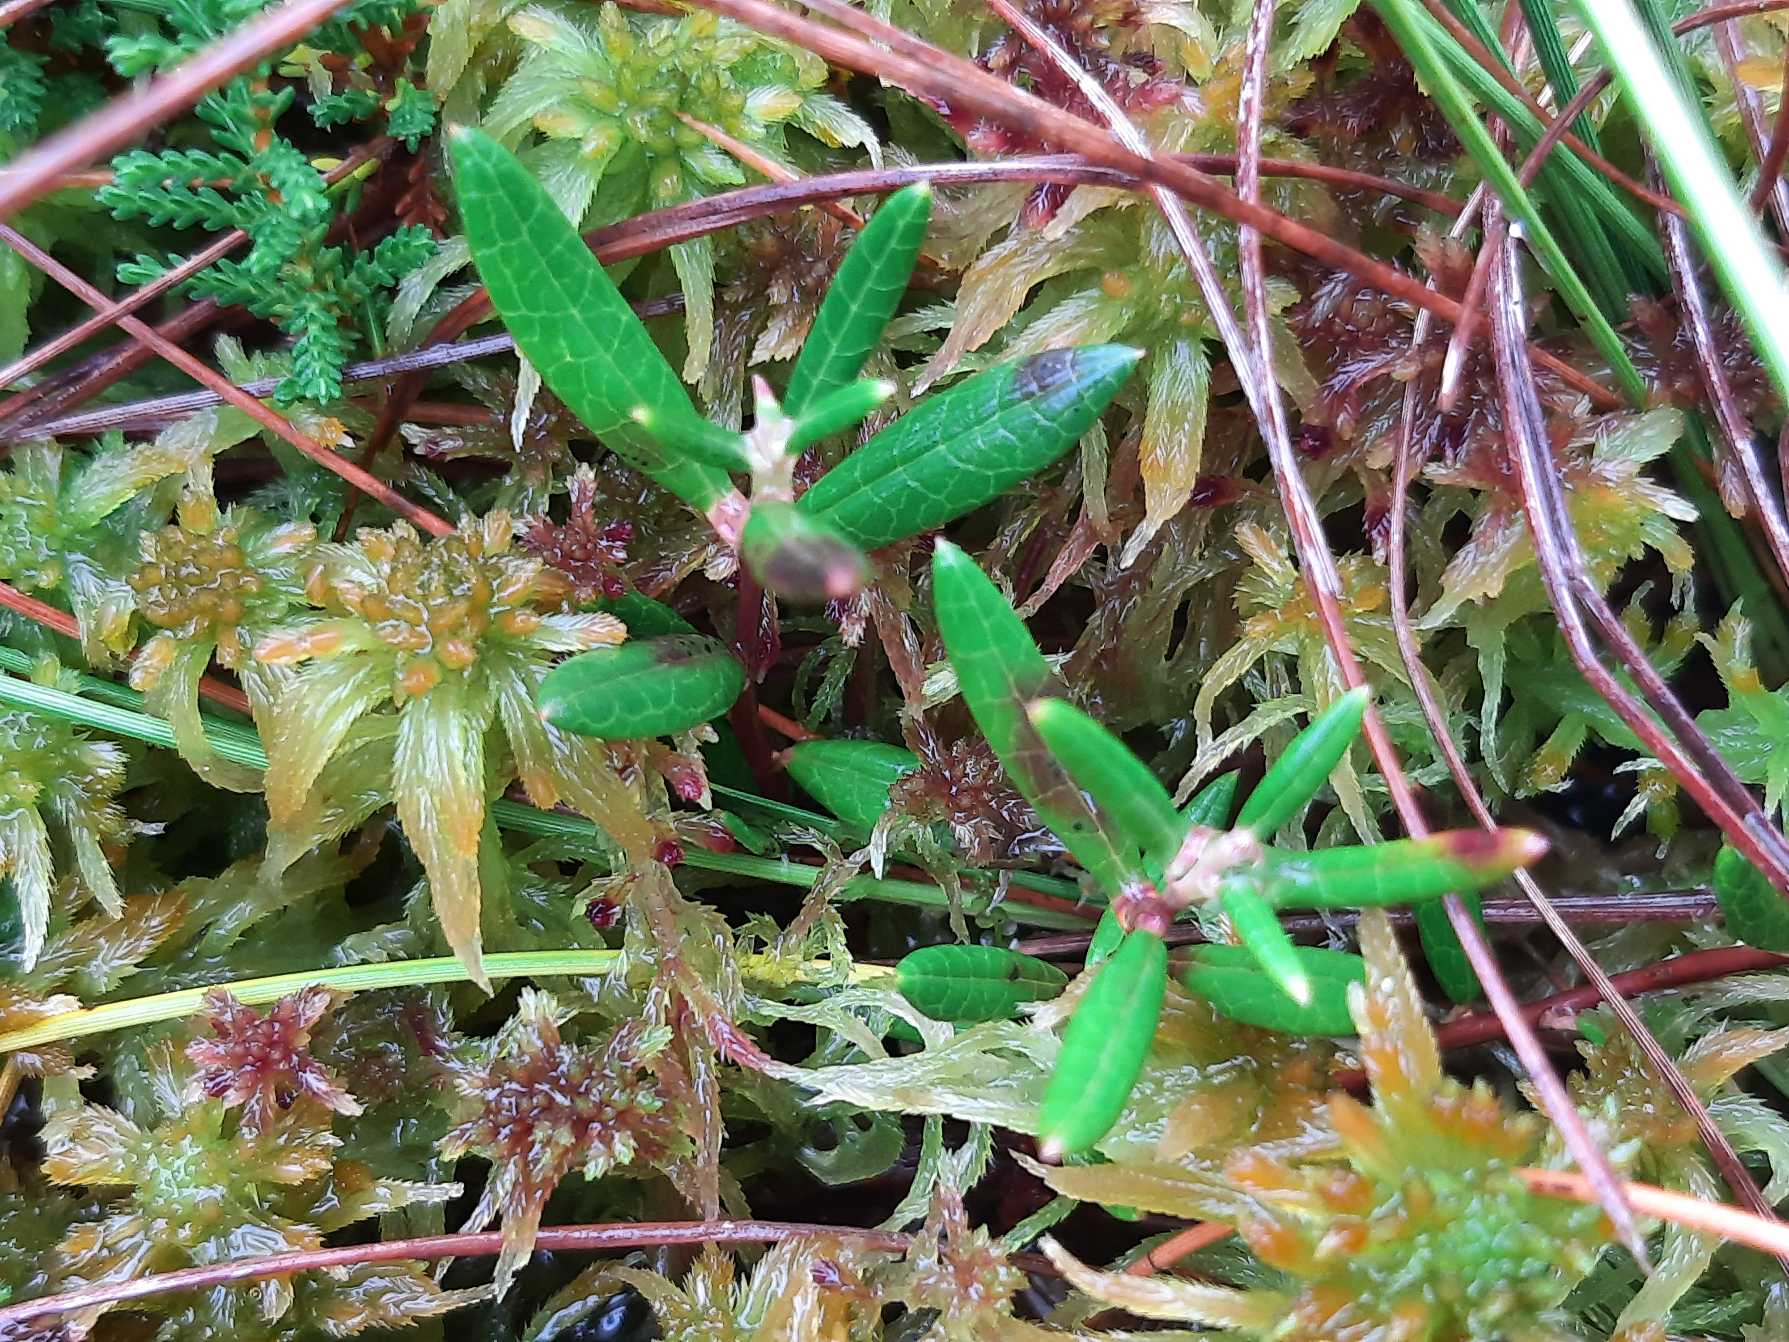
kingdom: Plantae
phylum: Tracheophyta
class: Magnoliopsida
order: Ericales
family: Ericaceae
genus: Andromeda
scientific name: Andromeda polifolia
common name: Rosmarinlyng
